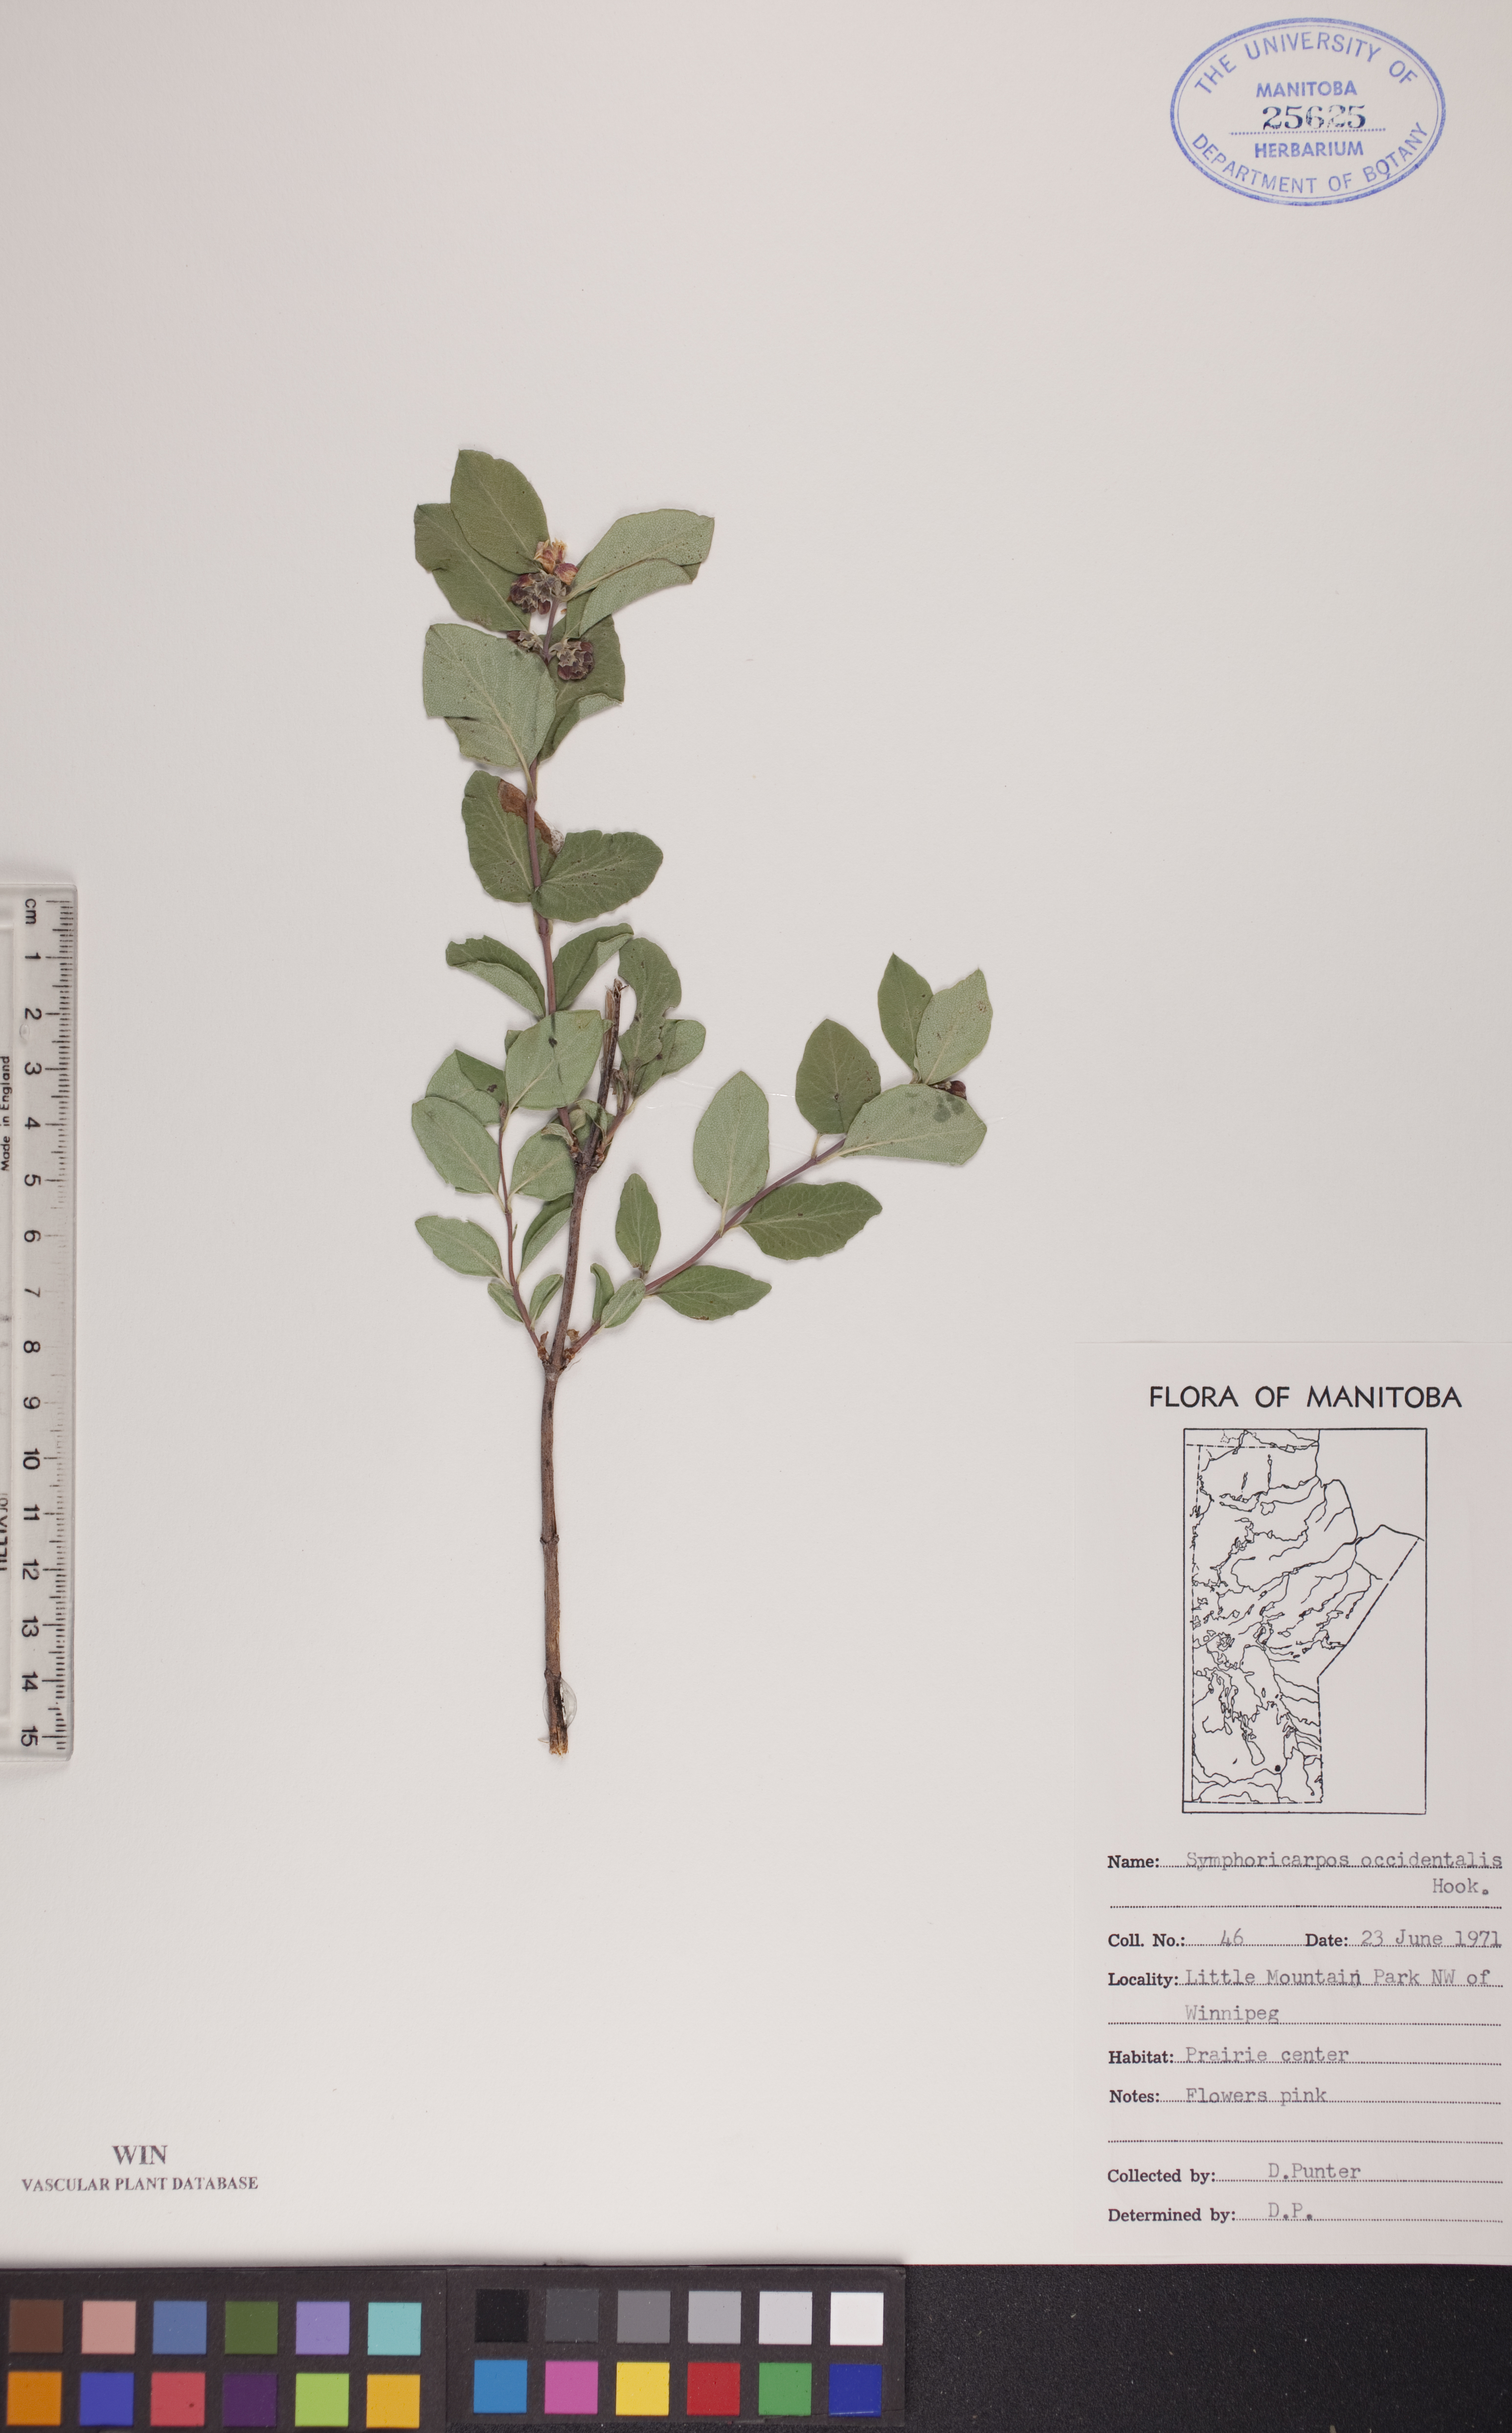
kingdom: Plantae
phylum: Tracheophyta
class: Magnoliopsida
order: Dipsacales
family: Caprifoliaceae
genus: Symphoricarpos
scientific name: Symphoricarpos occidentalis
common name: Wolfberry
